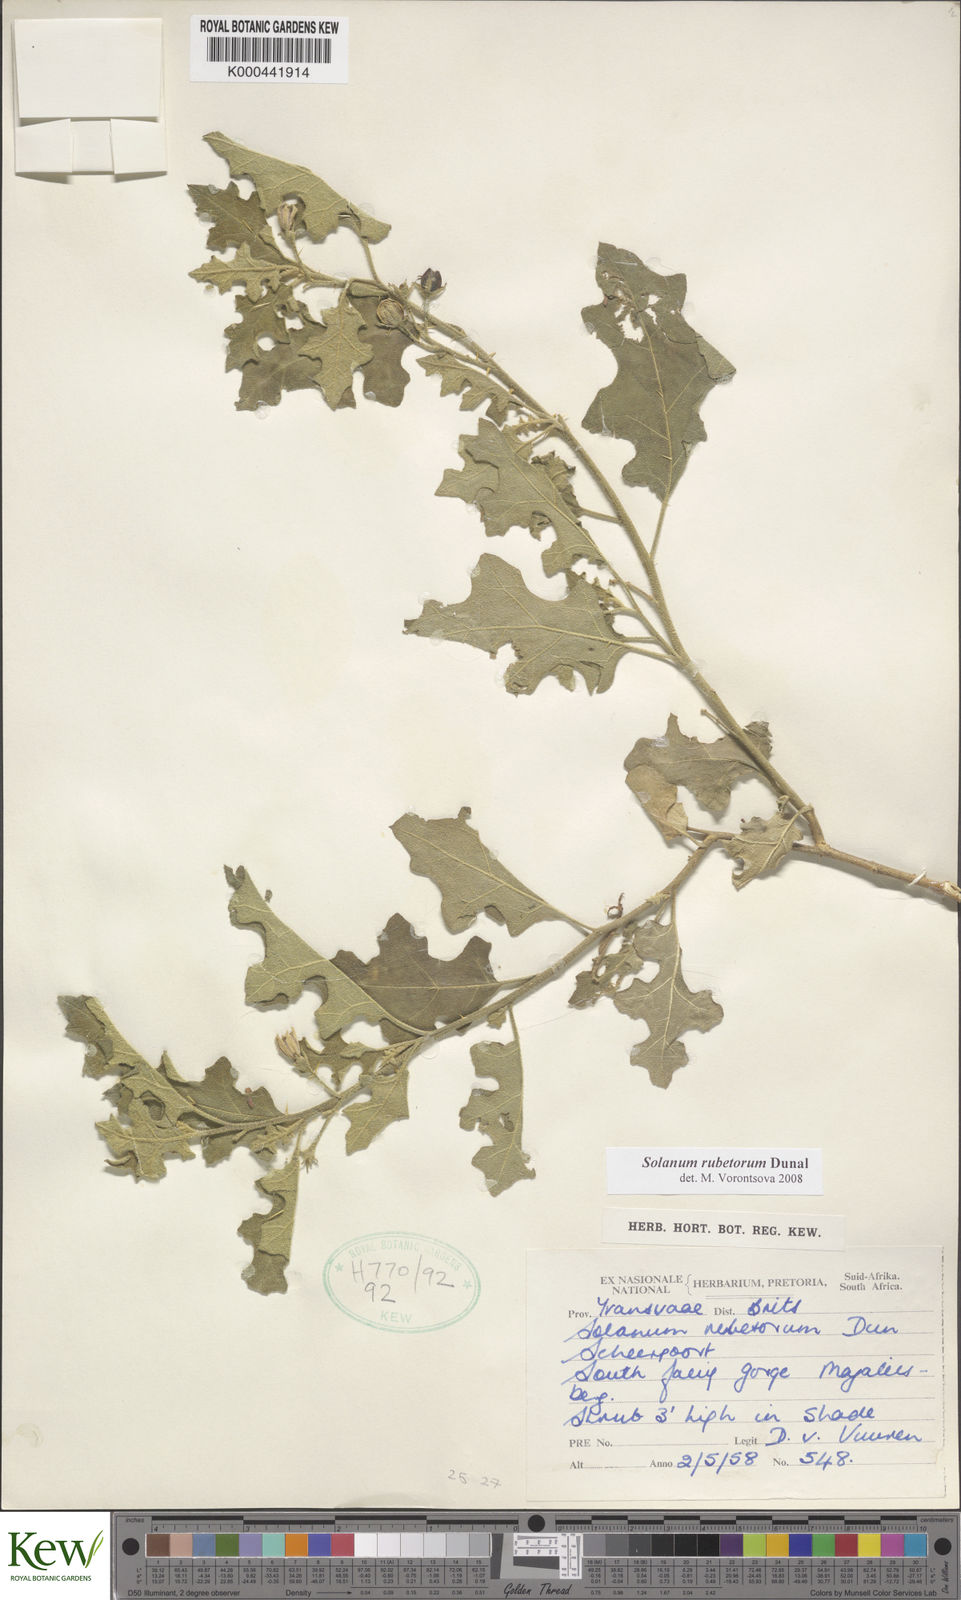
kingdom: Plantae
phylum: Tracheophyta
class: Magnoliopsida
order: Solanales
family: Solanaceae
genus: Solanum
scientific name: Solanum rubetorum
